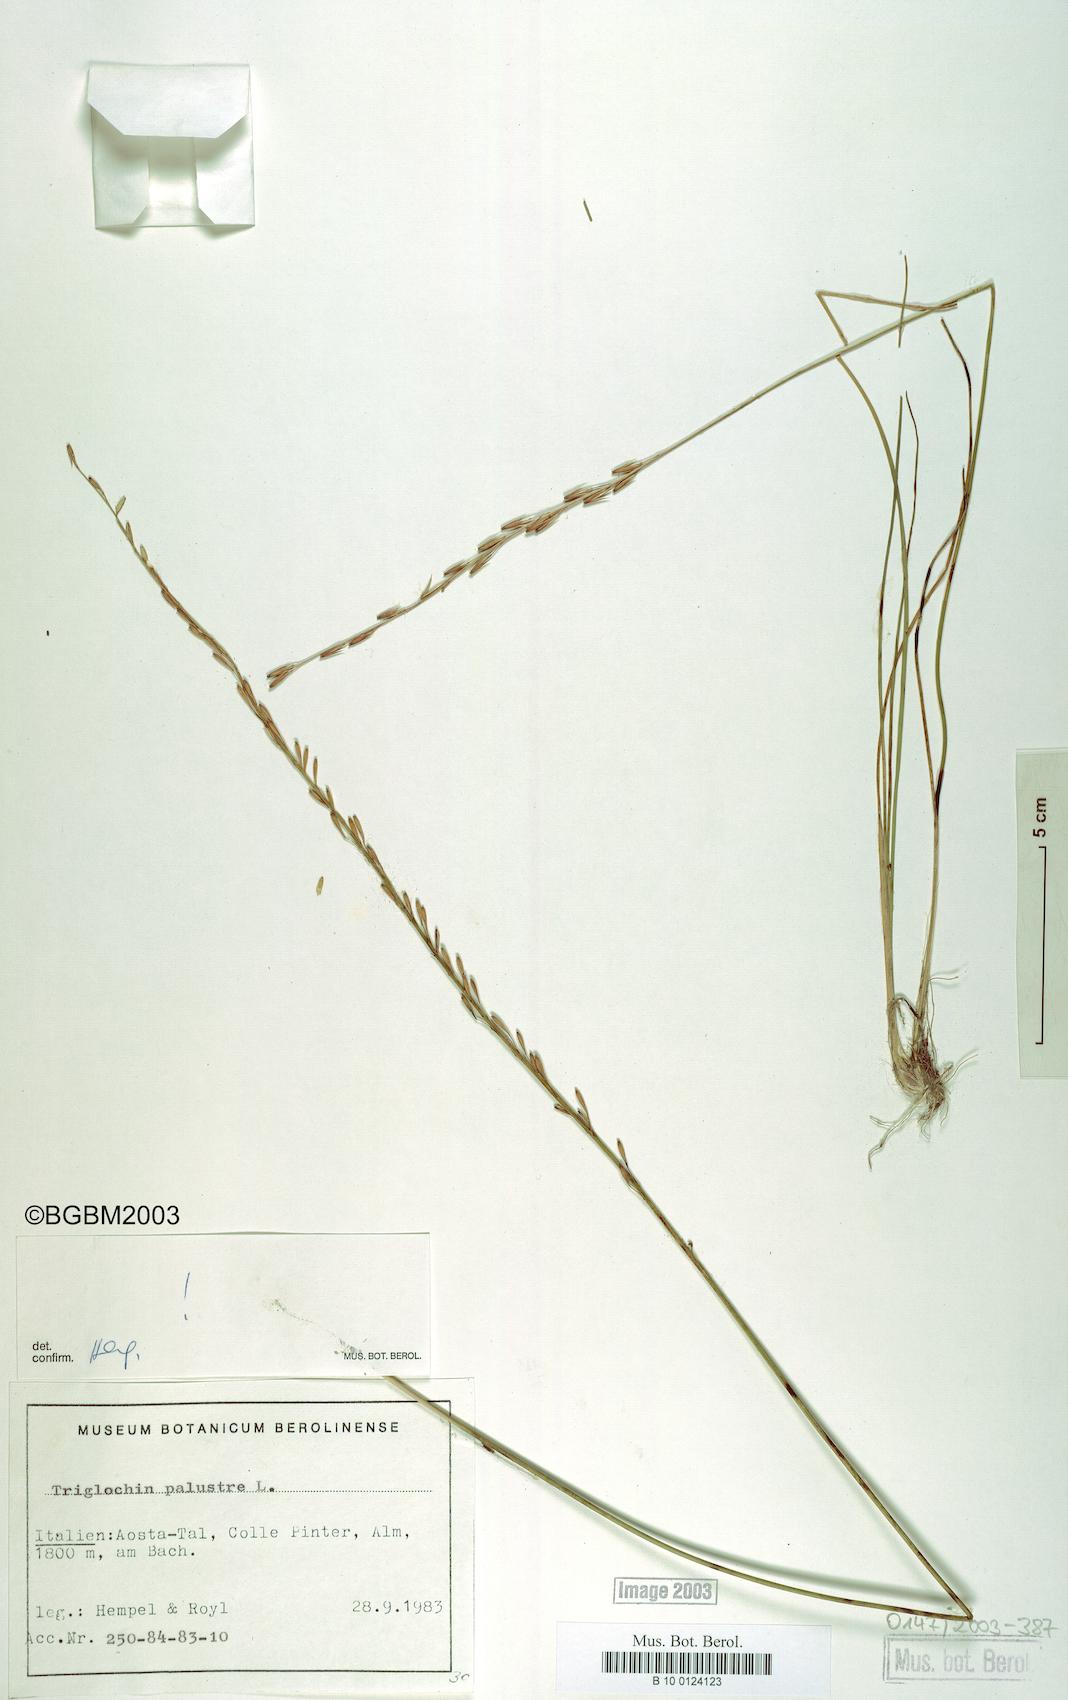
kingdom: Plantae
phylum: Tracheophyta
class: Liliopsida
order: Alismatales
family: Juncaginaceae
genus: Triglochin
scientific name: Triglochin palustris
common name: Marsh arrowgrass
